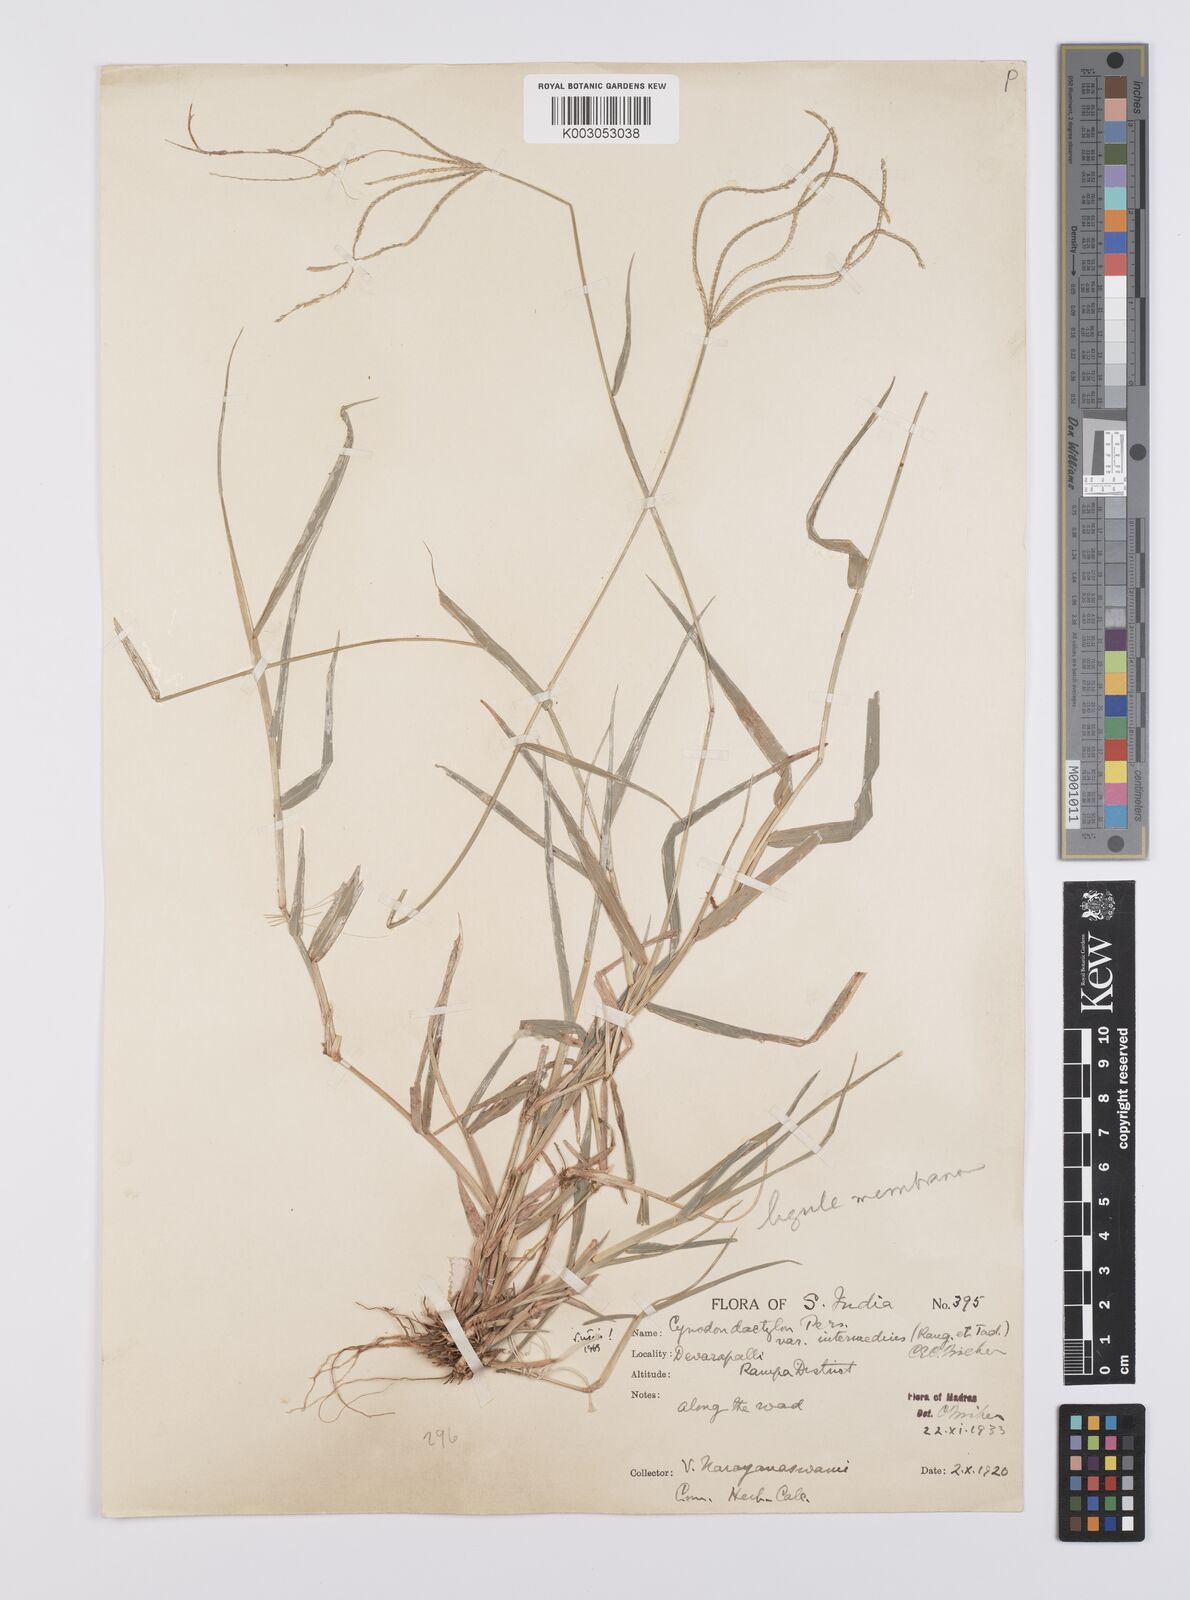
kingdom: Plantae
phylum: Tracheophyta
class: Liliopsida
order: Poales
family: Poaceae
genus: Cynodon
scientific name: Cynodon radiatus
